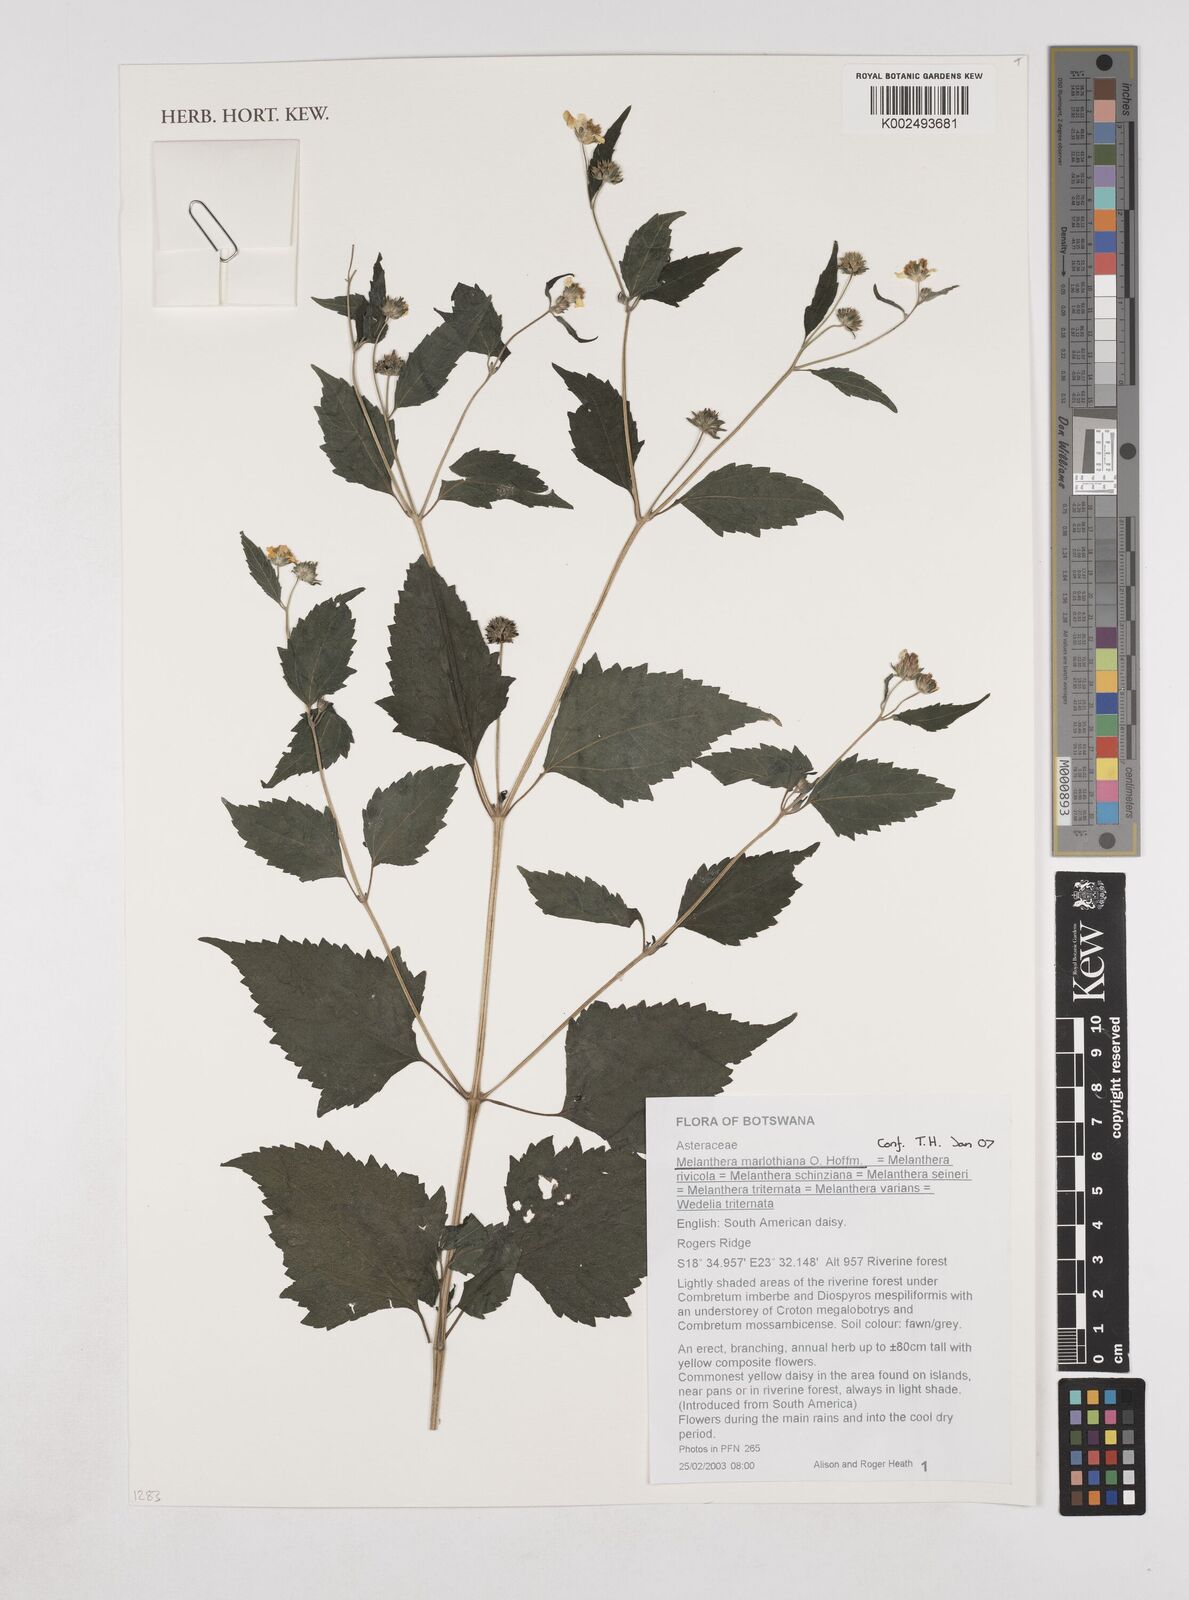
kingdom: Plantae
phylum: Tracheophyta
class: Magnoliopsida
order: Asterales
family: Asteraceae
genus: Lipotriche
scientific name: Lipotriche marlothiana
